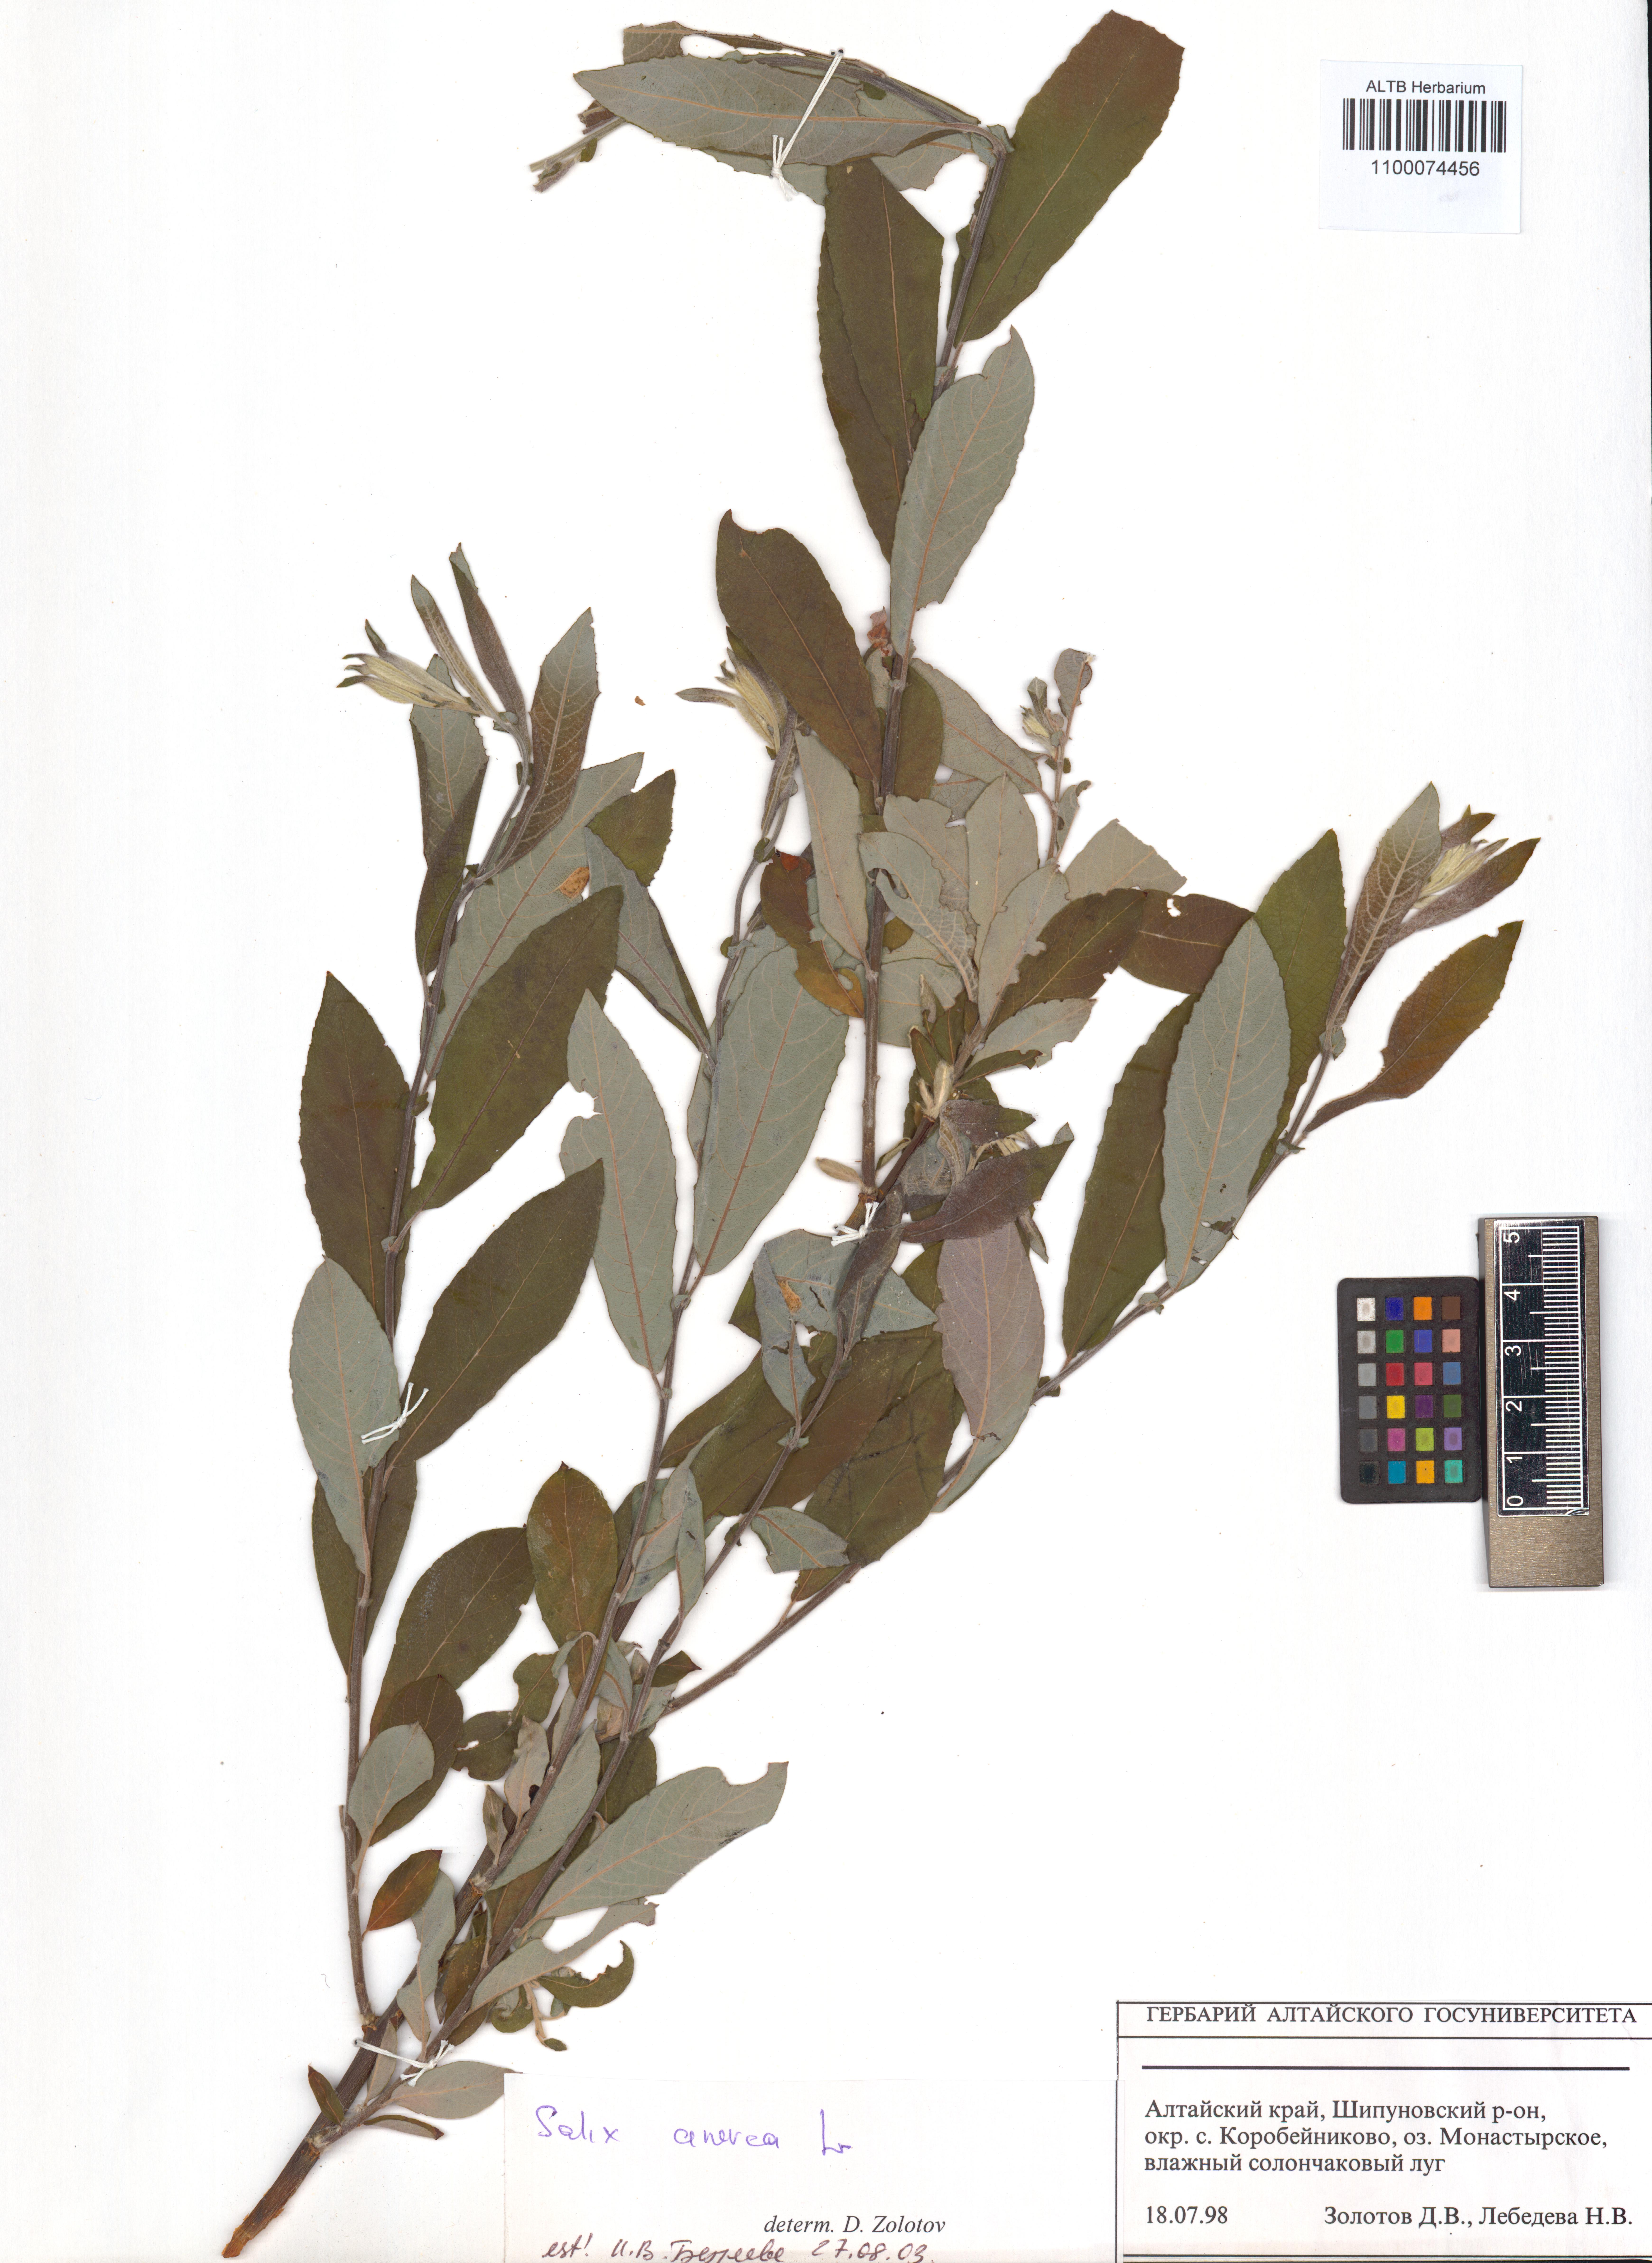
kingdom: Plantae
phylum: Tracheophyta
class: Magnoliopsida
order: Malpighiales
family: Salicaceae
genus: Salix
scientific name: Salix cinerea
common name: Common sallow
